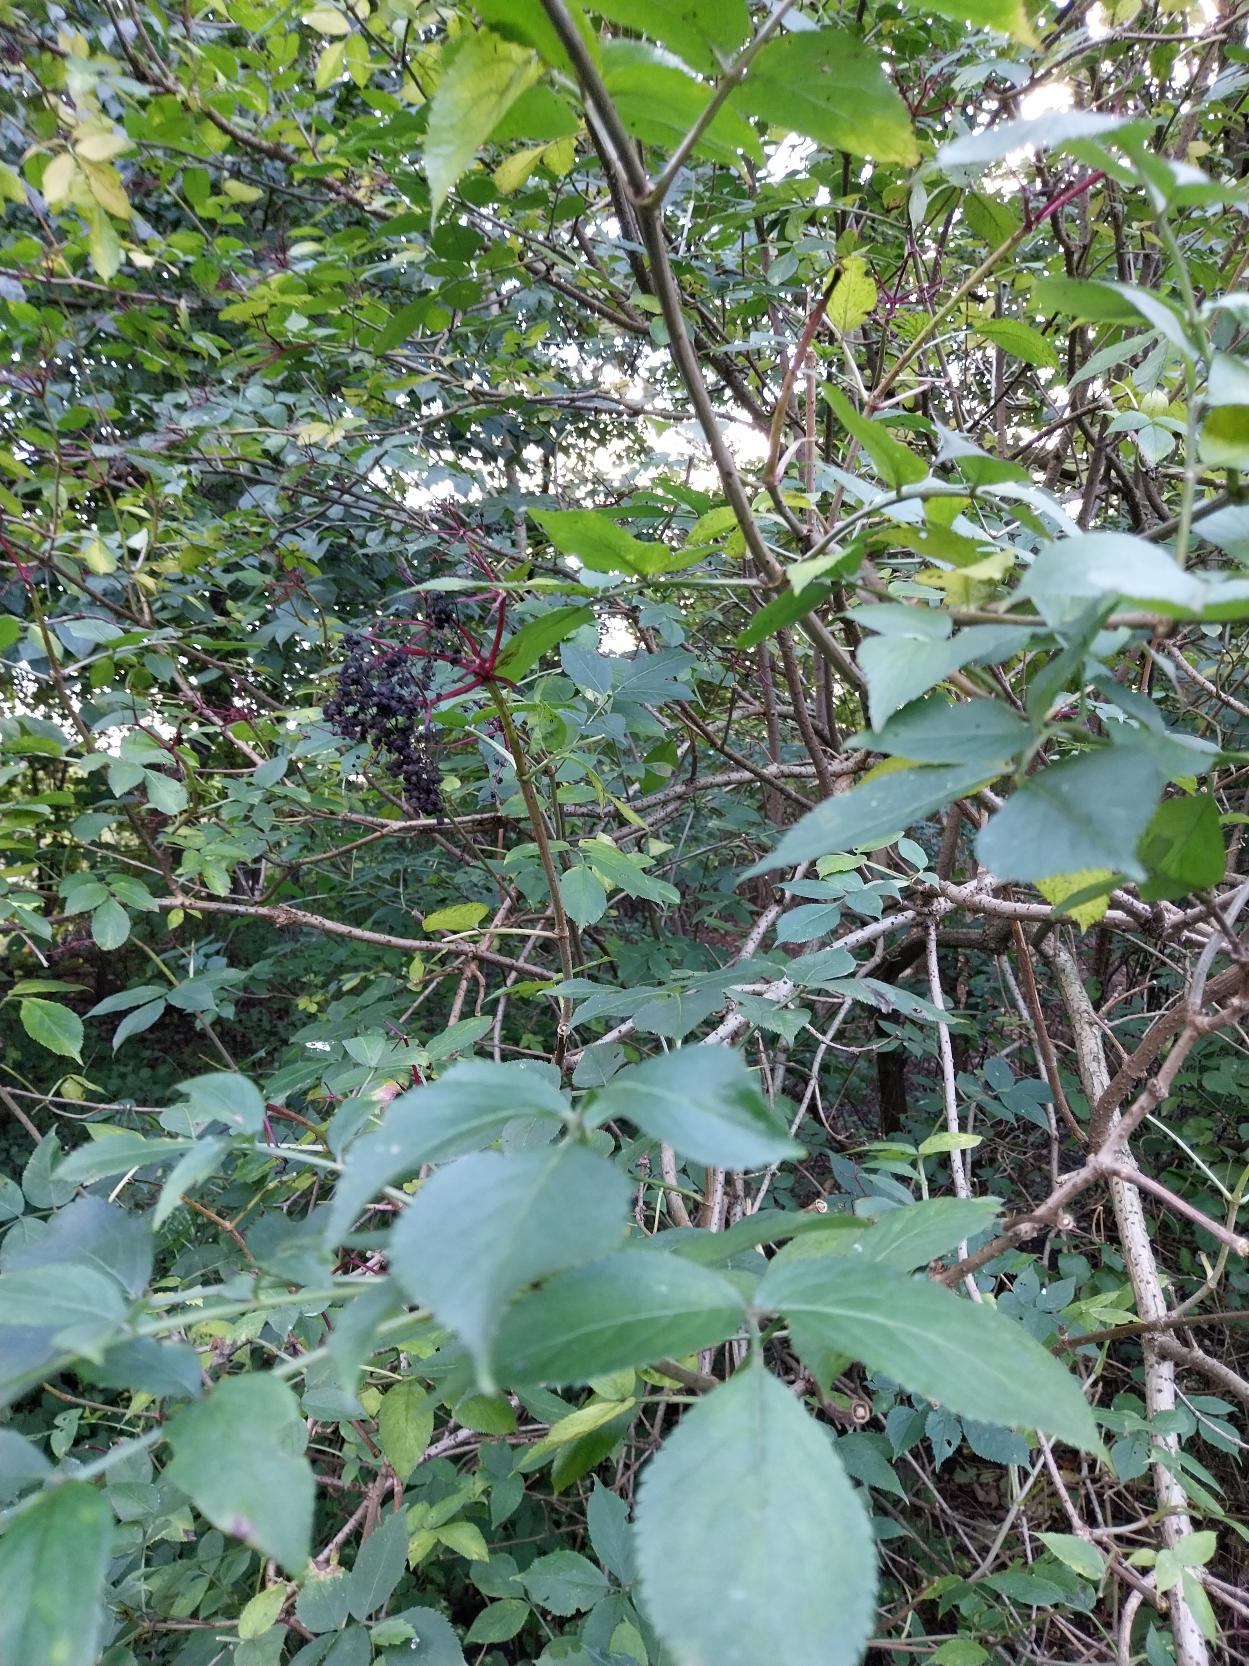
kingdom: Plantae
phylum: Tracheophyta
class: Magnoliopsida
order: Dipsacales
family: Viburnaceae
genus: Sambucus
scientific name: Sambucus nigra
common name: Almindelig hyld
